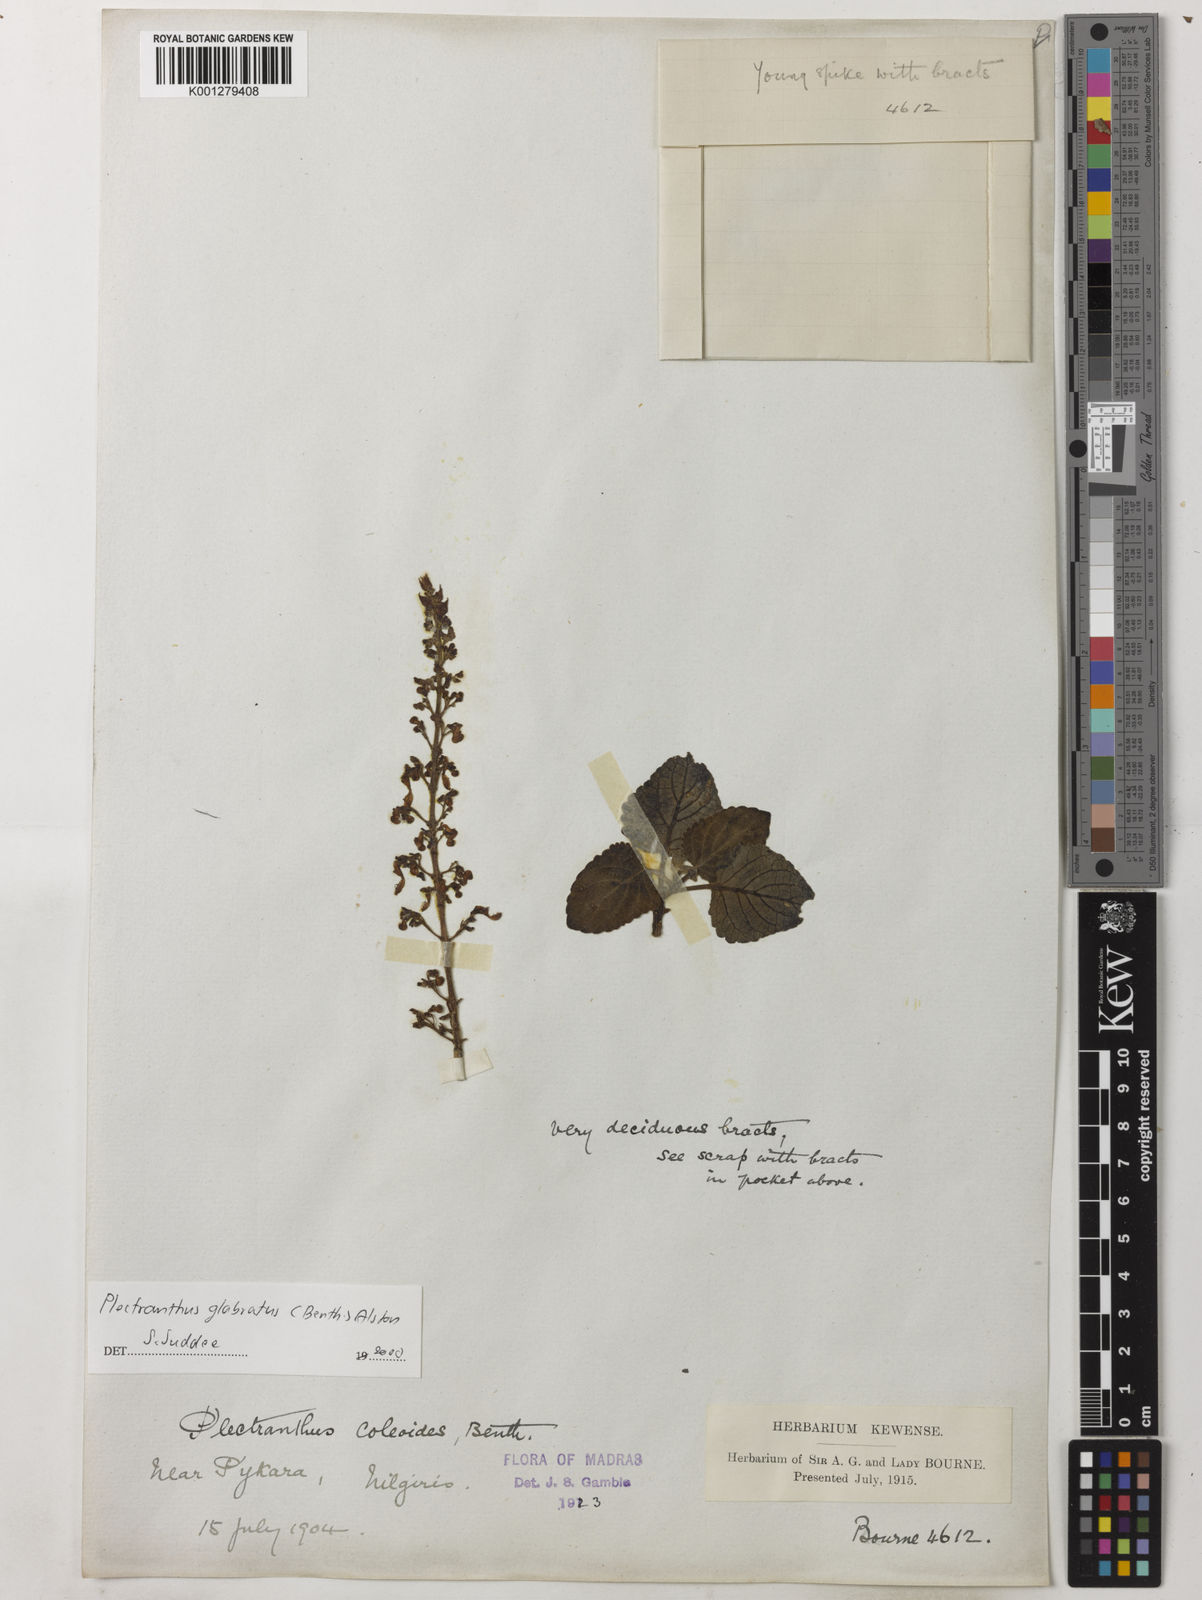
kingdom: Plantae
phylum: Tracheophyta
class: Magnoliopsida
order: Lamiales
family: Lamiaceae
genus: Coleus
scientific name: Coleus paniculatus
